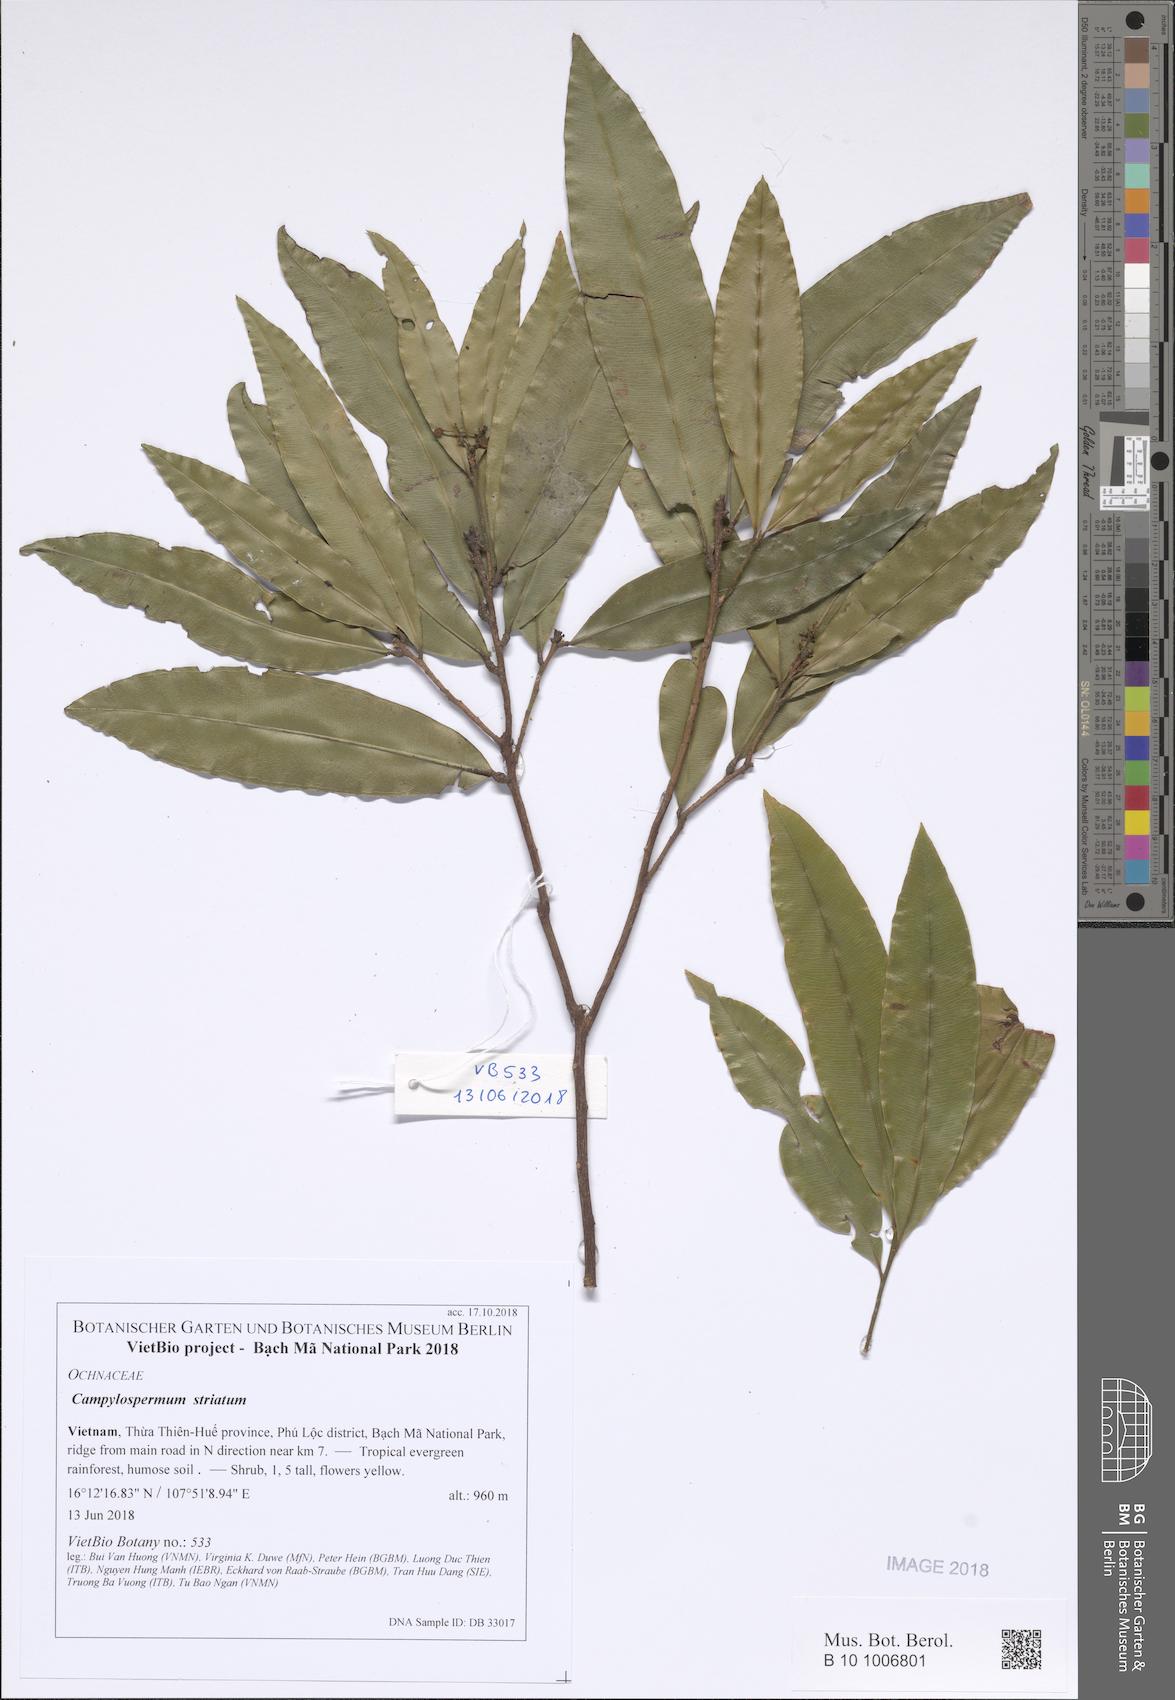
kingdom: Plantae
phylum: Tracheophyta
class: Magnoliopsida
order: Malpighiales
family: Ochnaceae
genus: Gomphia
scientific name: Gomphia striata
